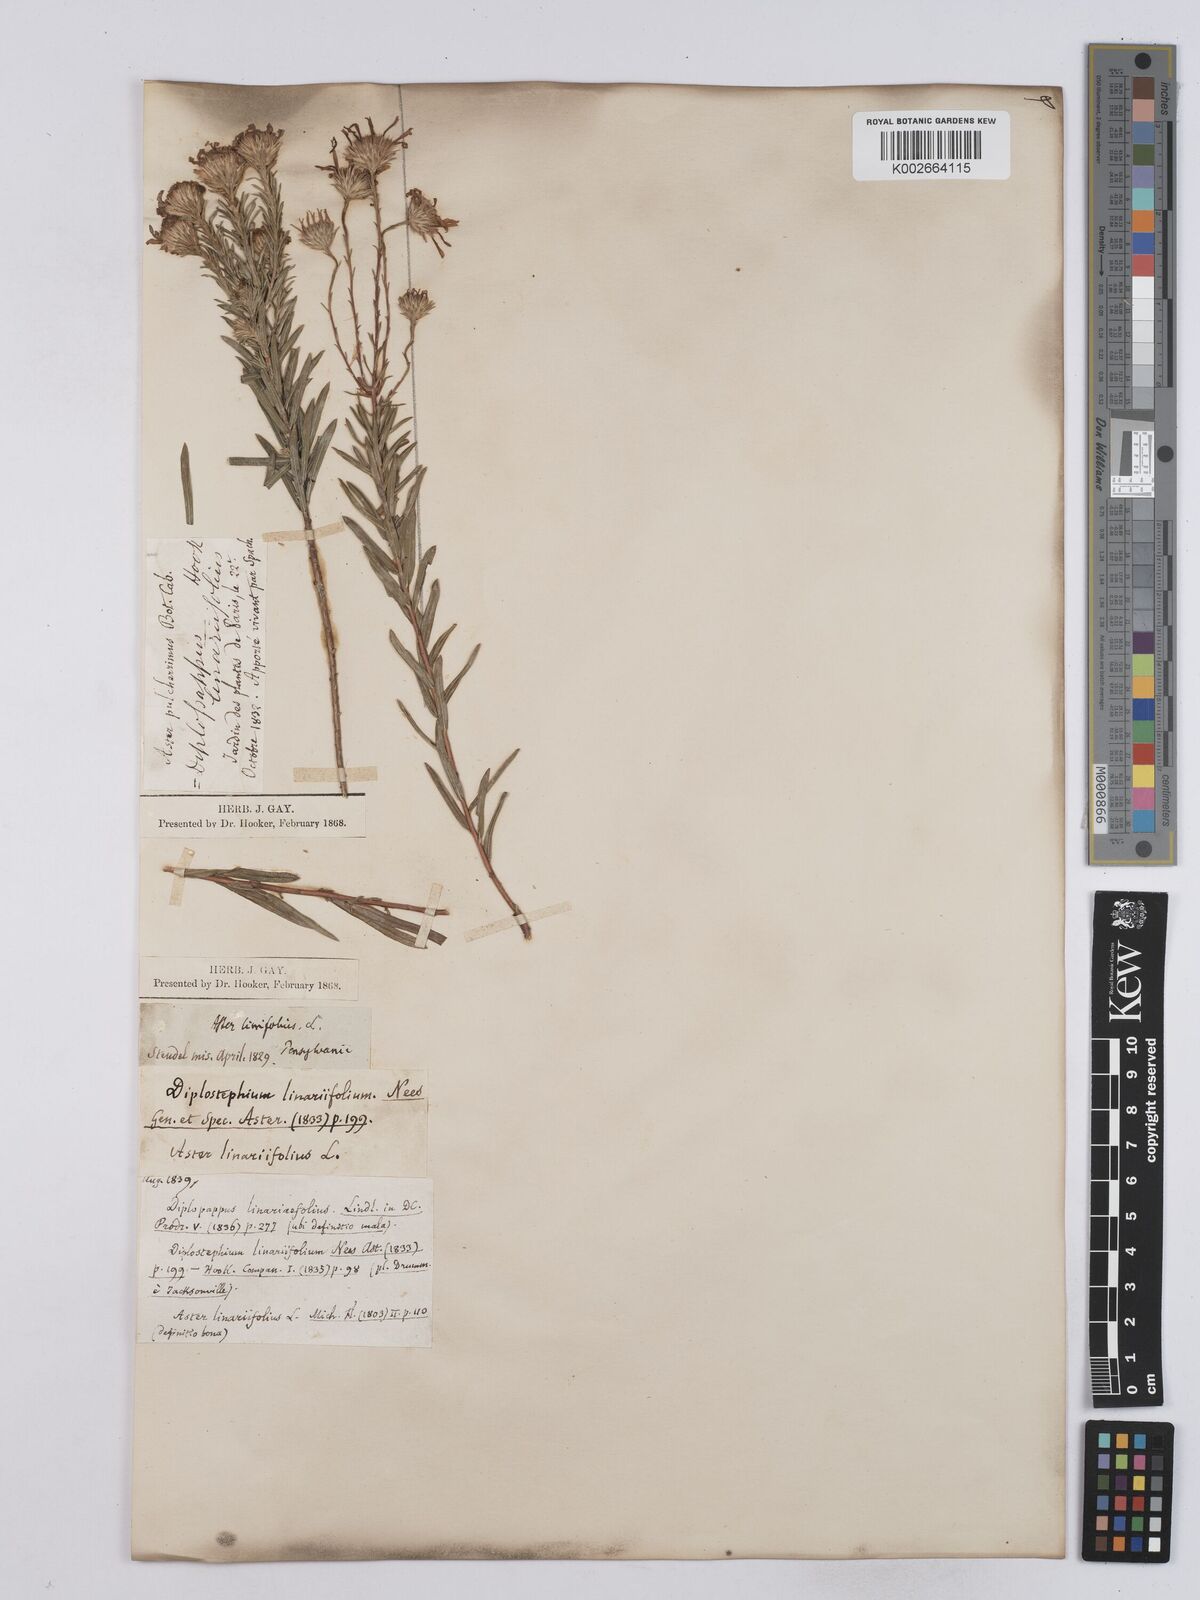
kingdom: Plantae
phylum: Tracheophyta
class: Magnoliopsida
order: Asterales
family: Asteraceae
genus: Ionactis
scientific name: Ionactis linariifolia
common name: Flax-leaf aster
